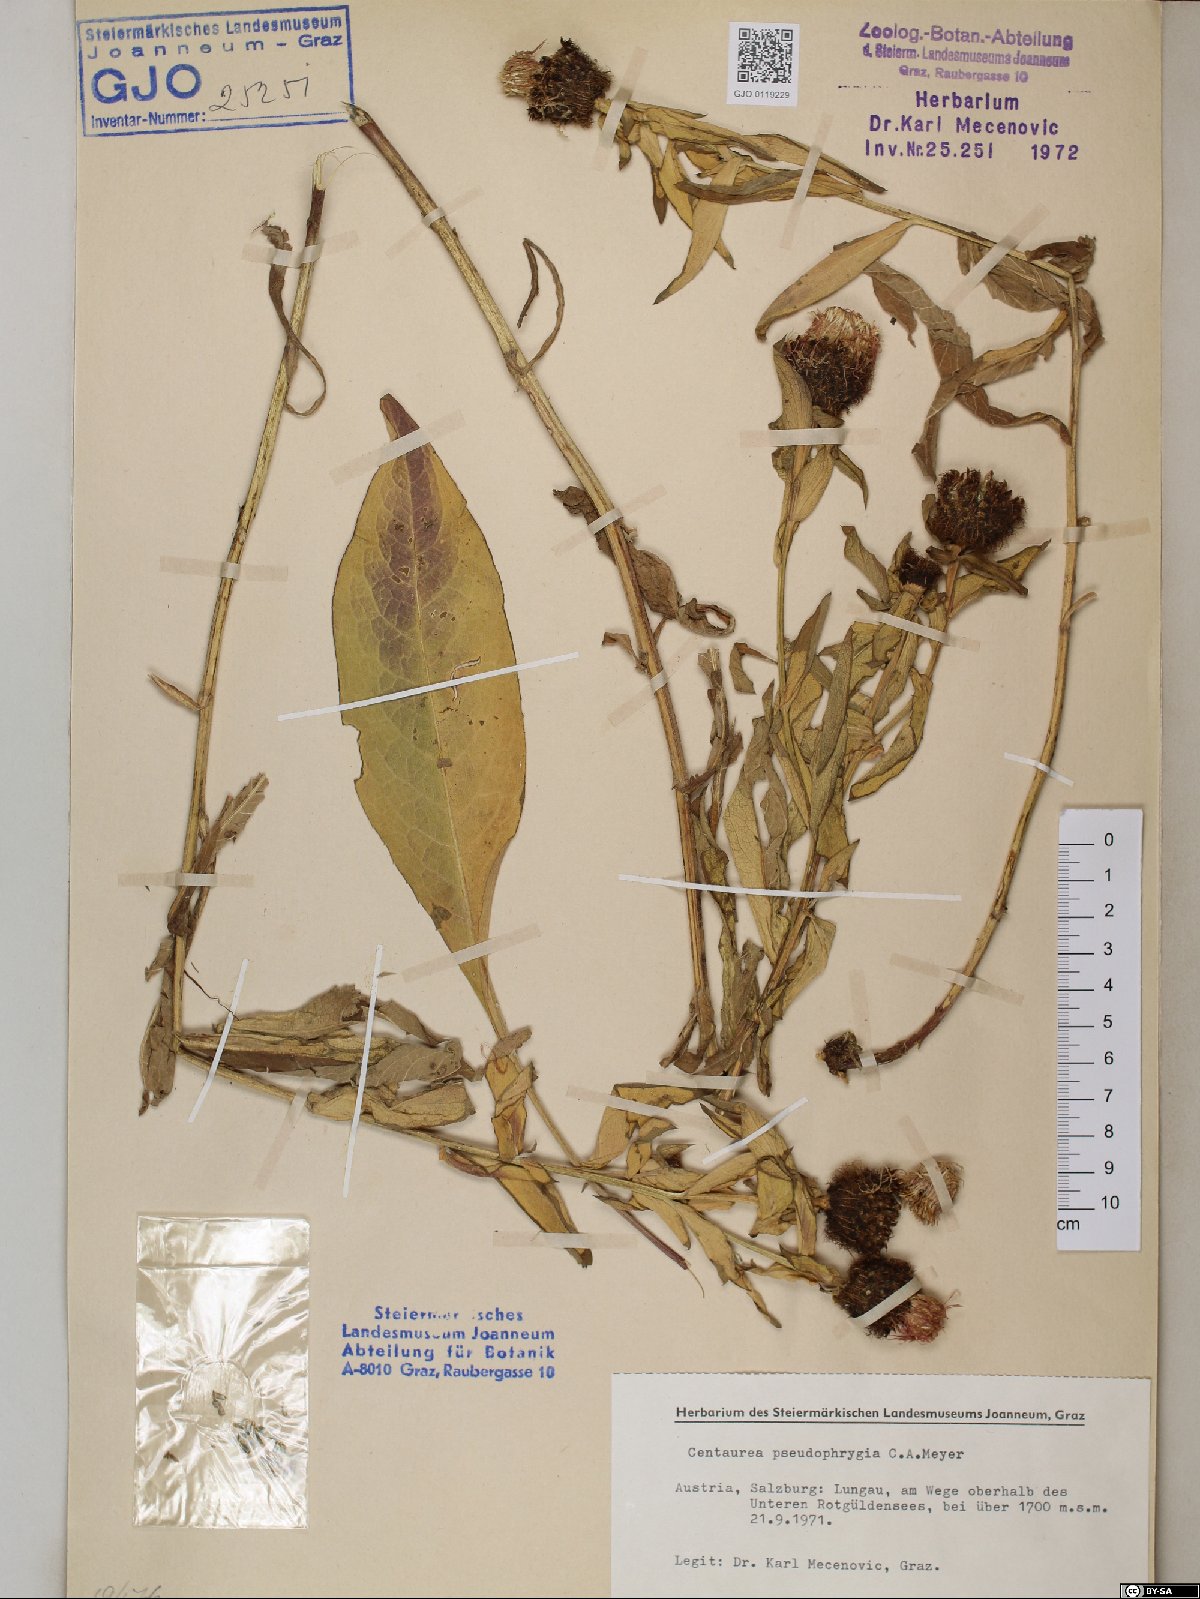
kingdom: Plantae
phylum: Tracheophyta
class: Magnoliopsida
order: Asterales
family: Asteraceae
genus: Centaurea
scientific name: Centaurea pseudophrygia
